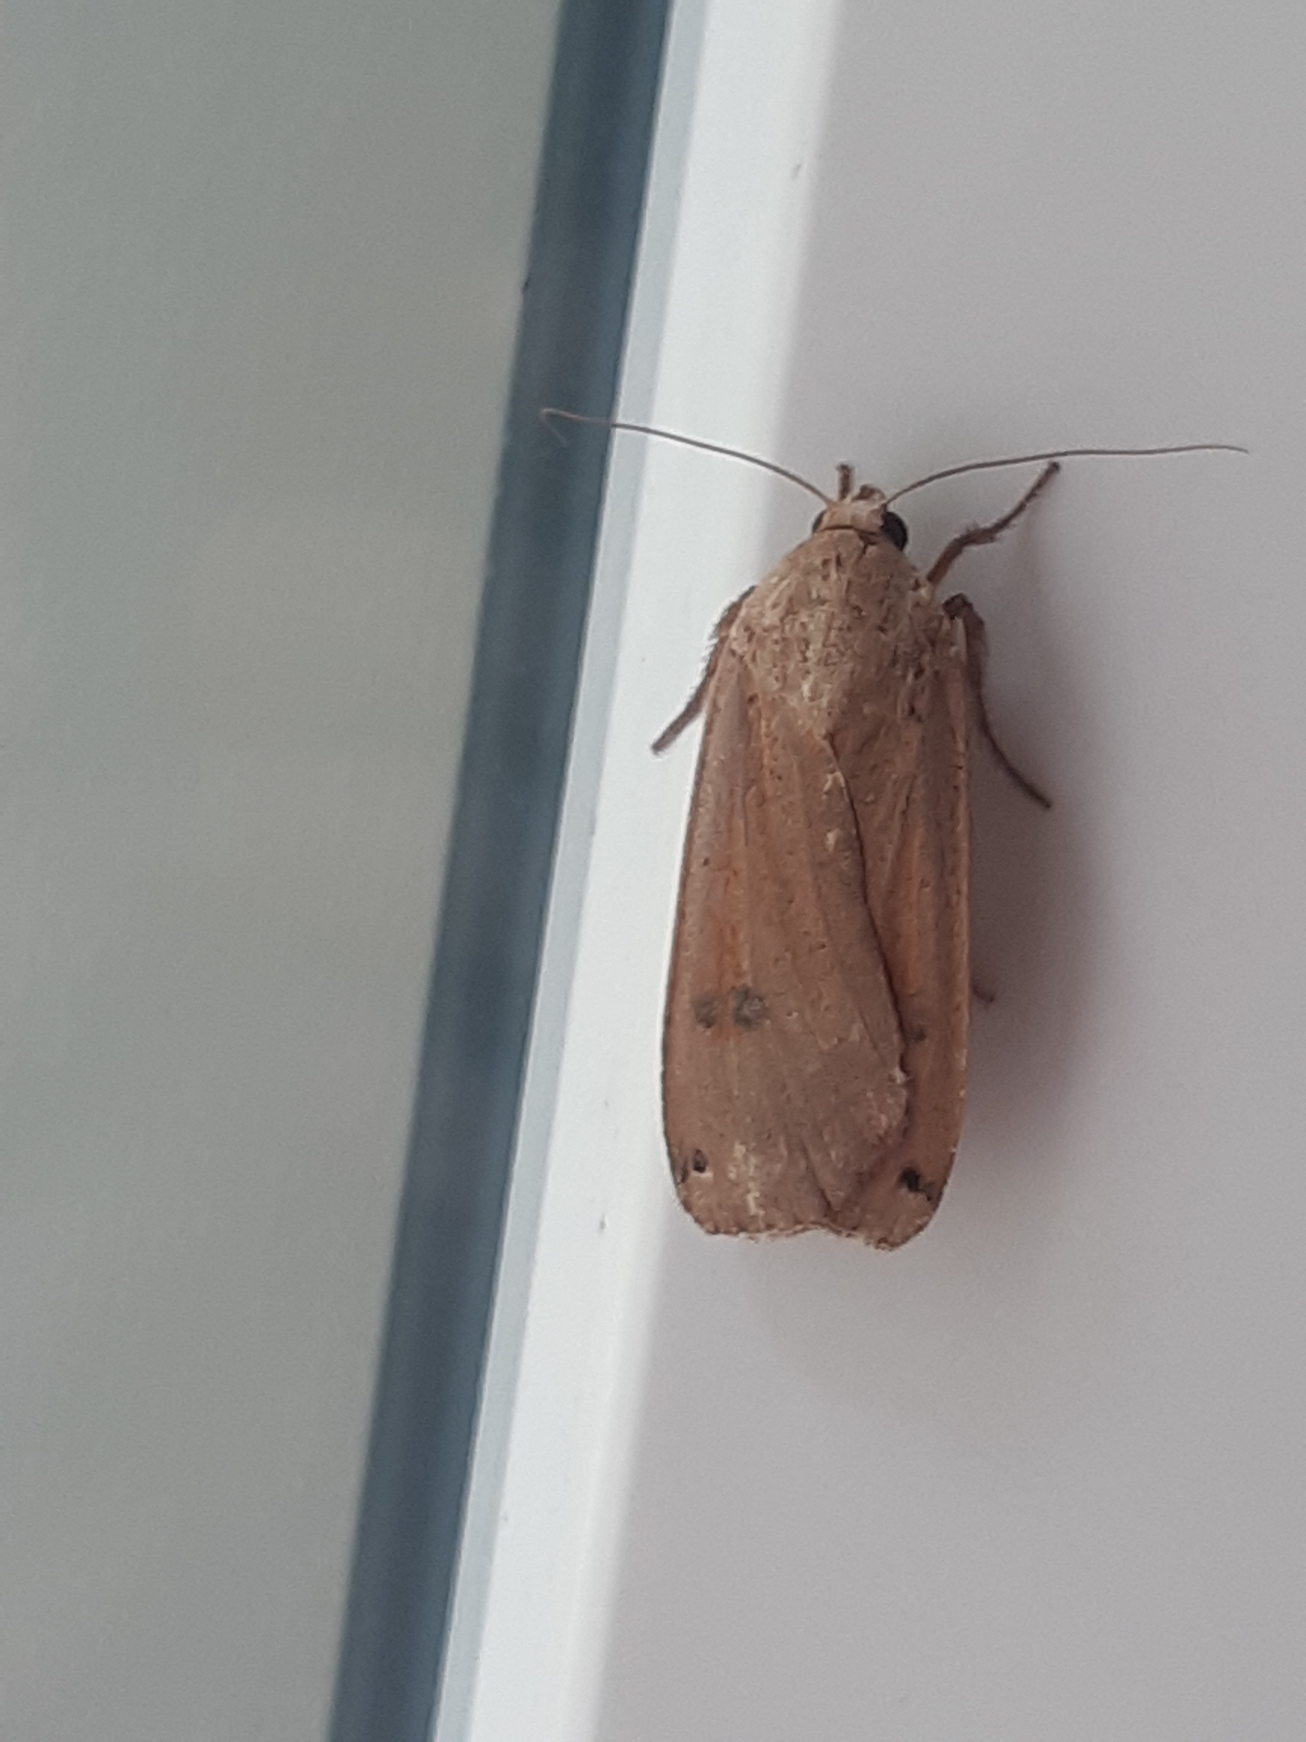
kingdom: Animalia
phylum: Arthropoda
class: Insecta
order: Lepidoptera
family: Noctuidae
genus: Noctua
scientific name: Noctua pronuba
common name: Stor smutugle
